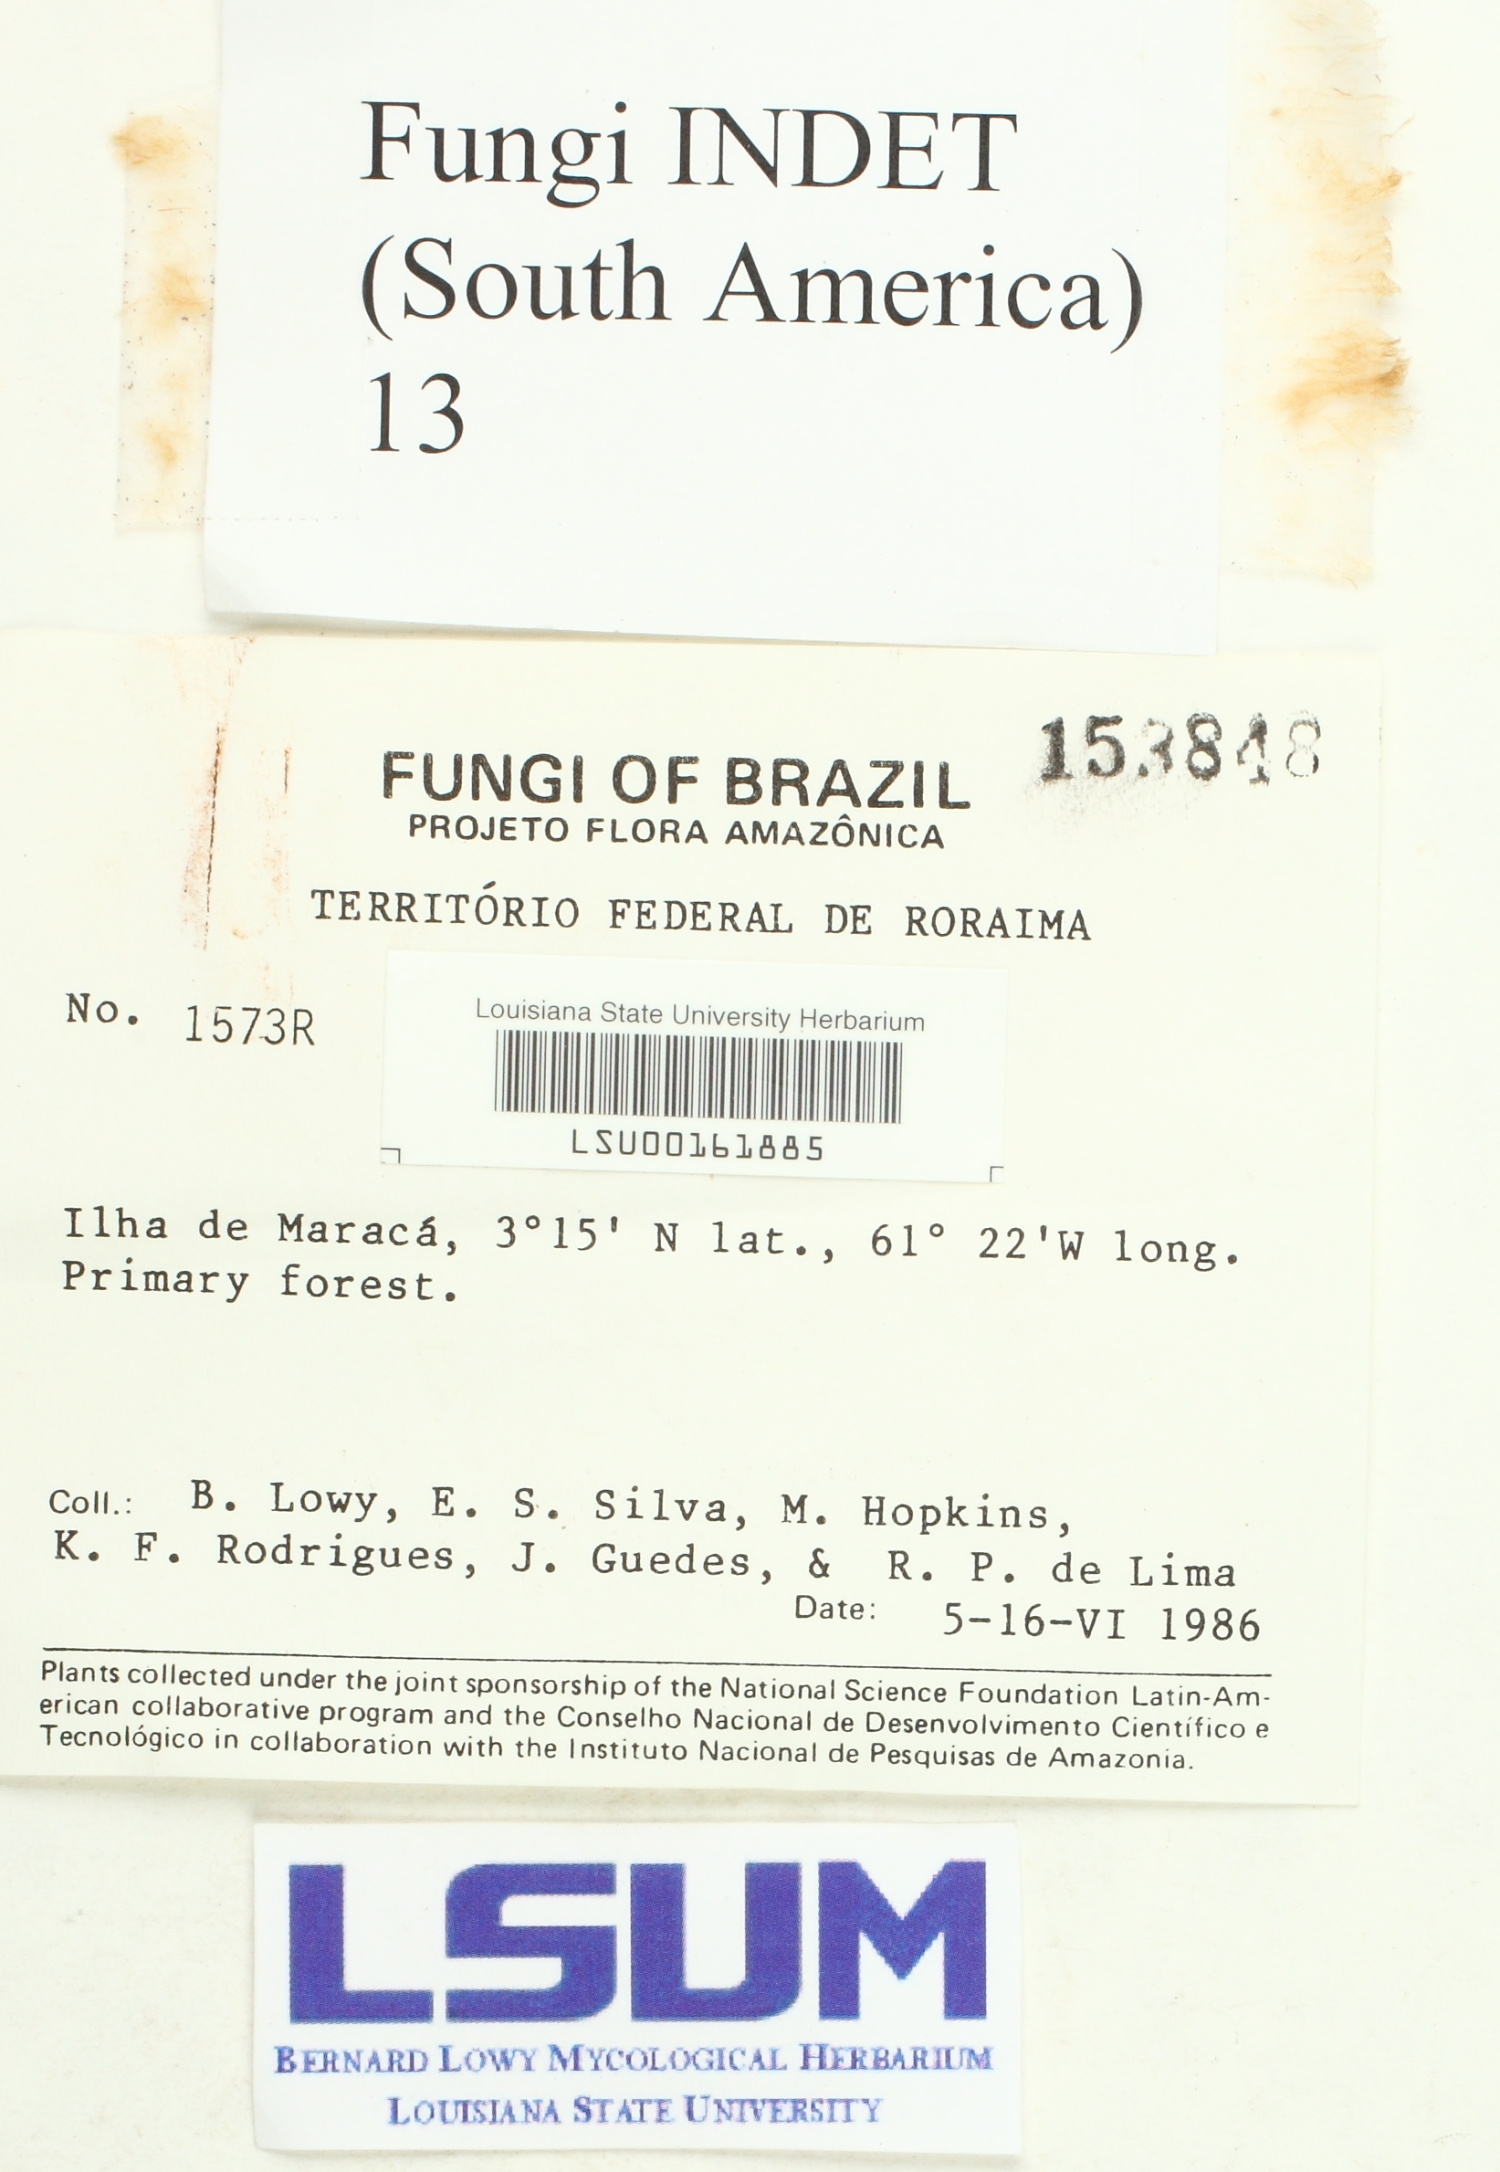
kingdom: Fungi
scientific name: Fungi
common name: Fungi
